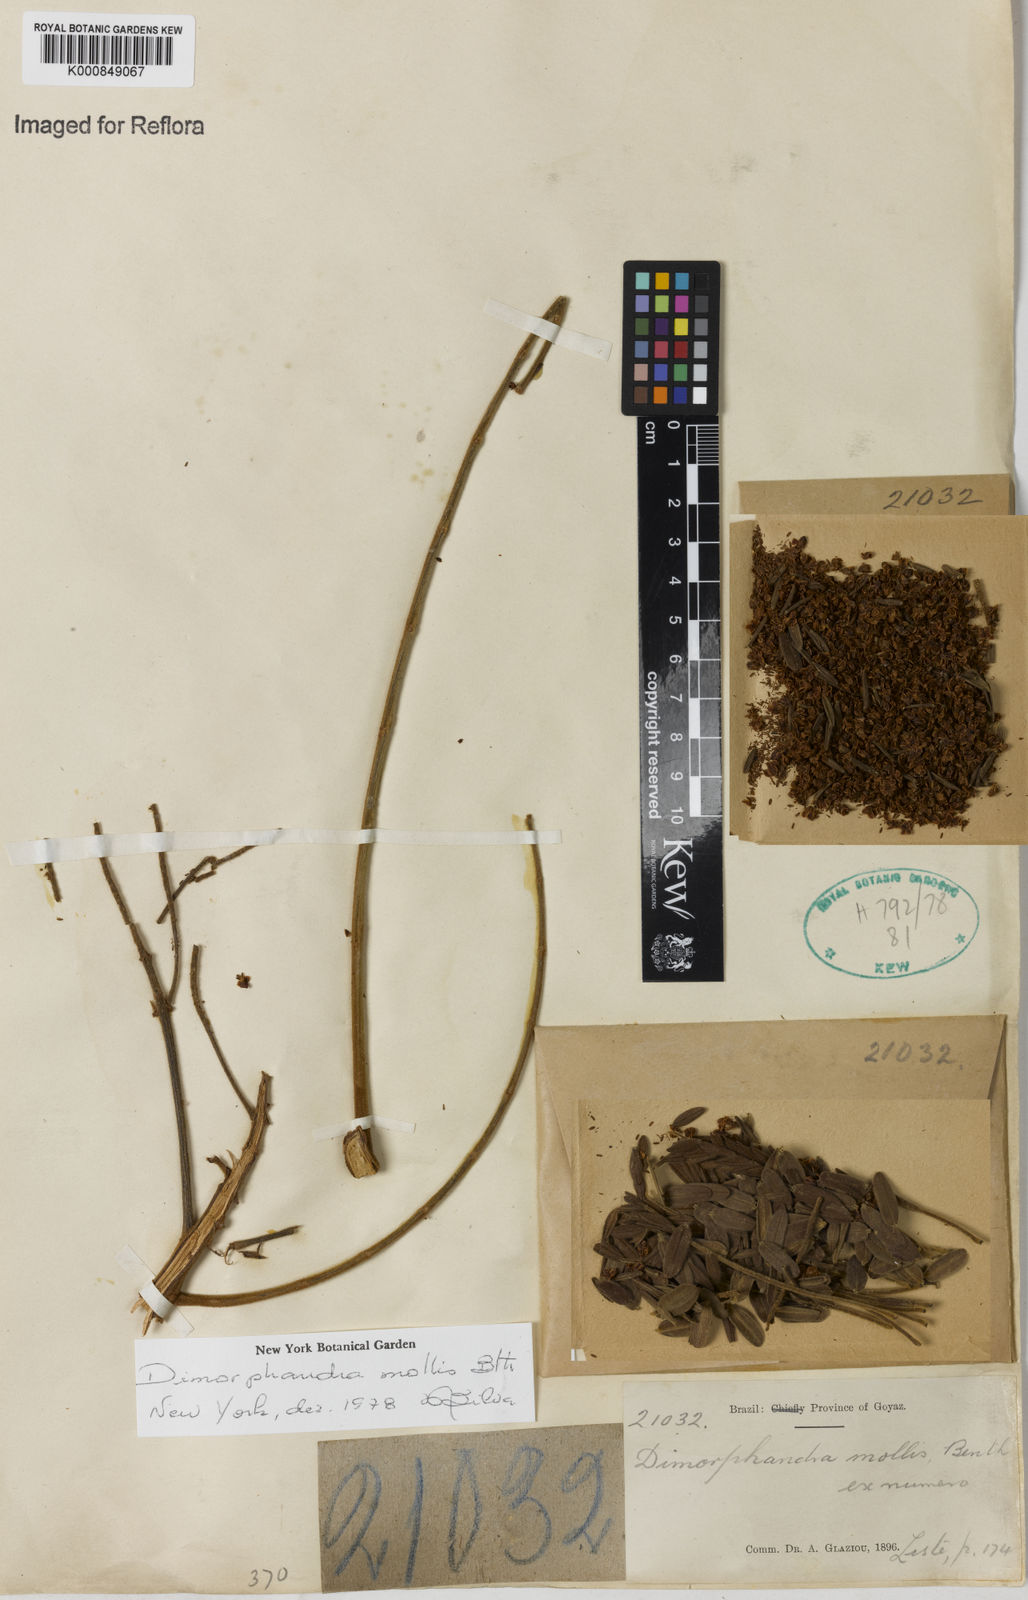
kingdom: Plantae
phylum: Tracheophyta
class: Magnoliopsida
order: Fabales
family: Fabaceae
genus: Dimorphandra
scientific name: Dimorphandra mollis
